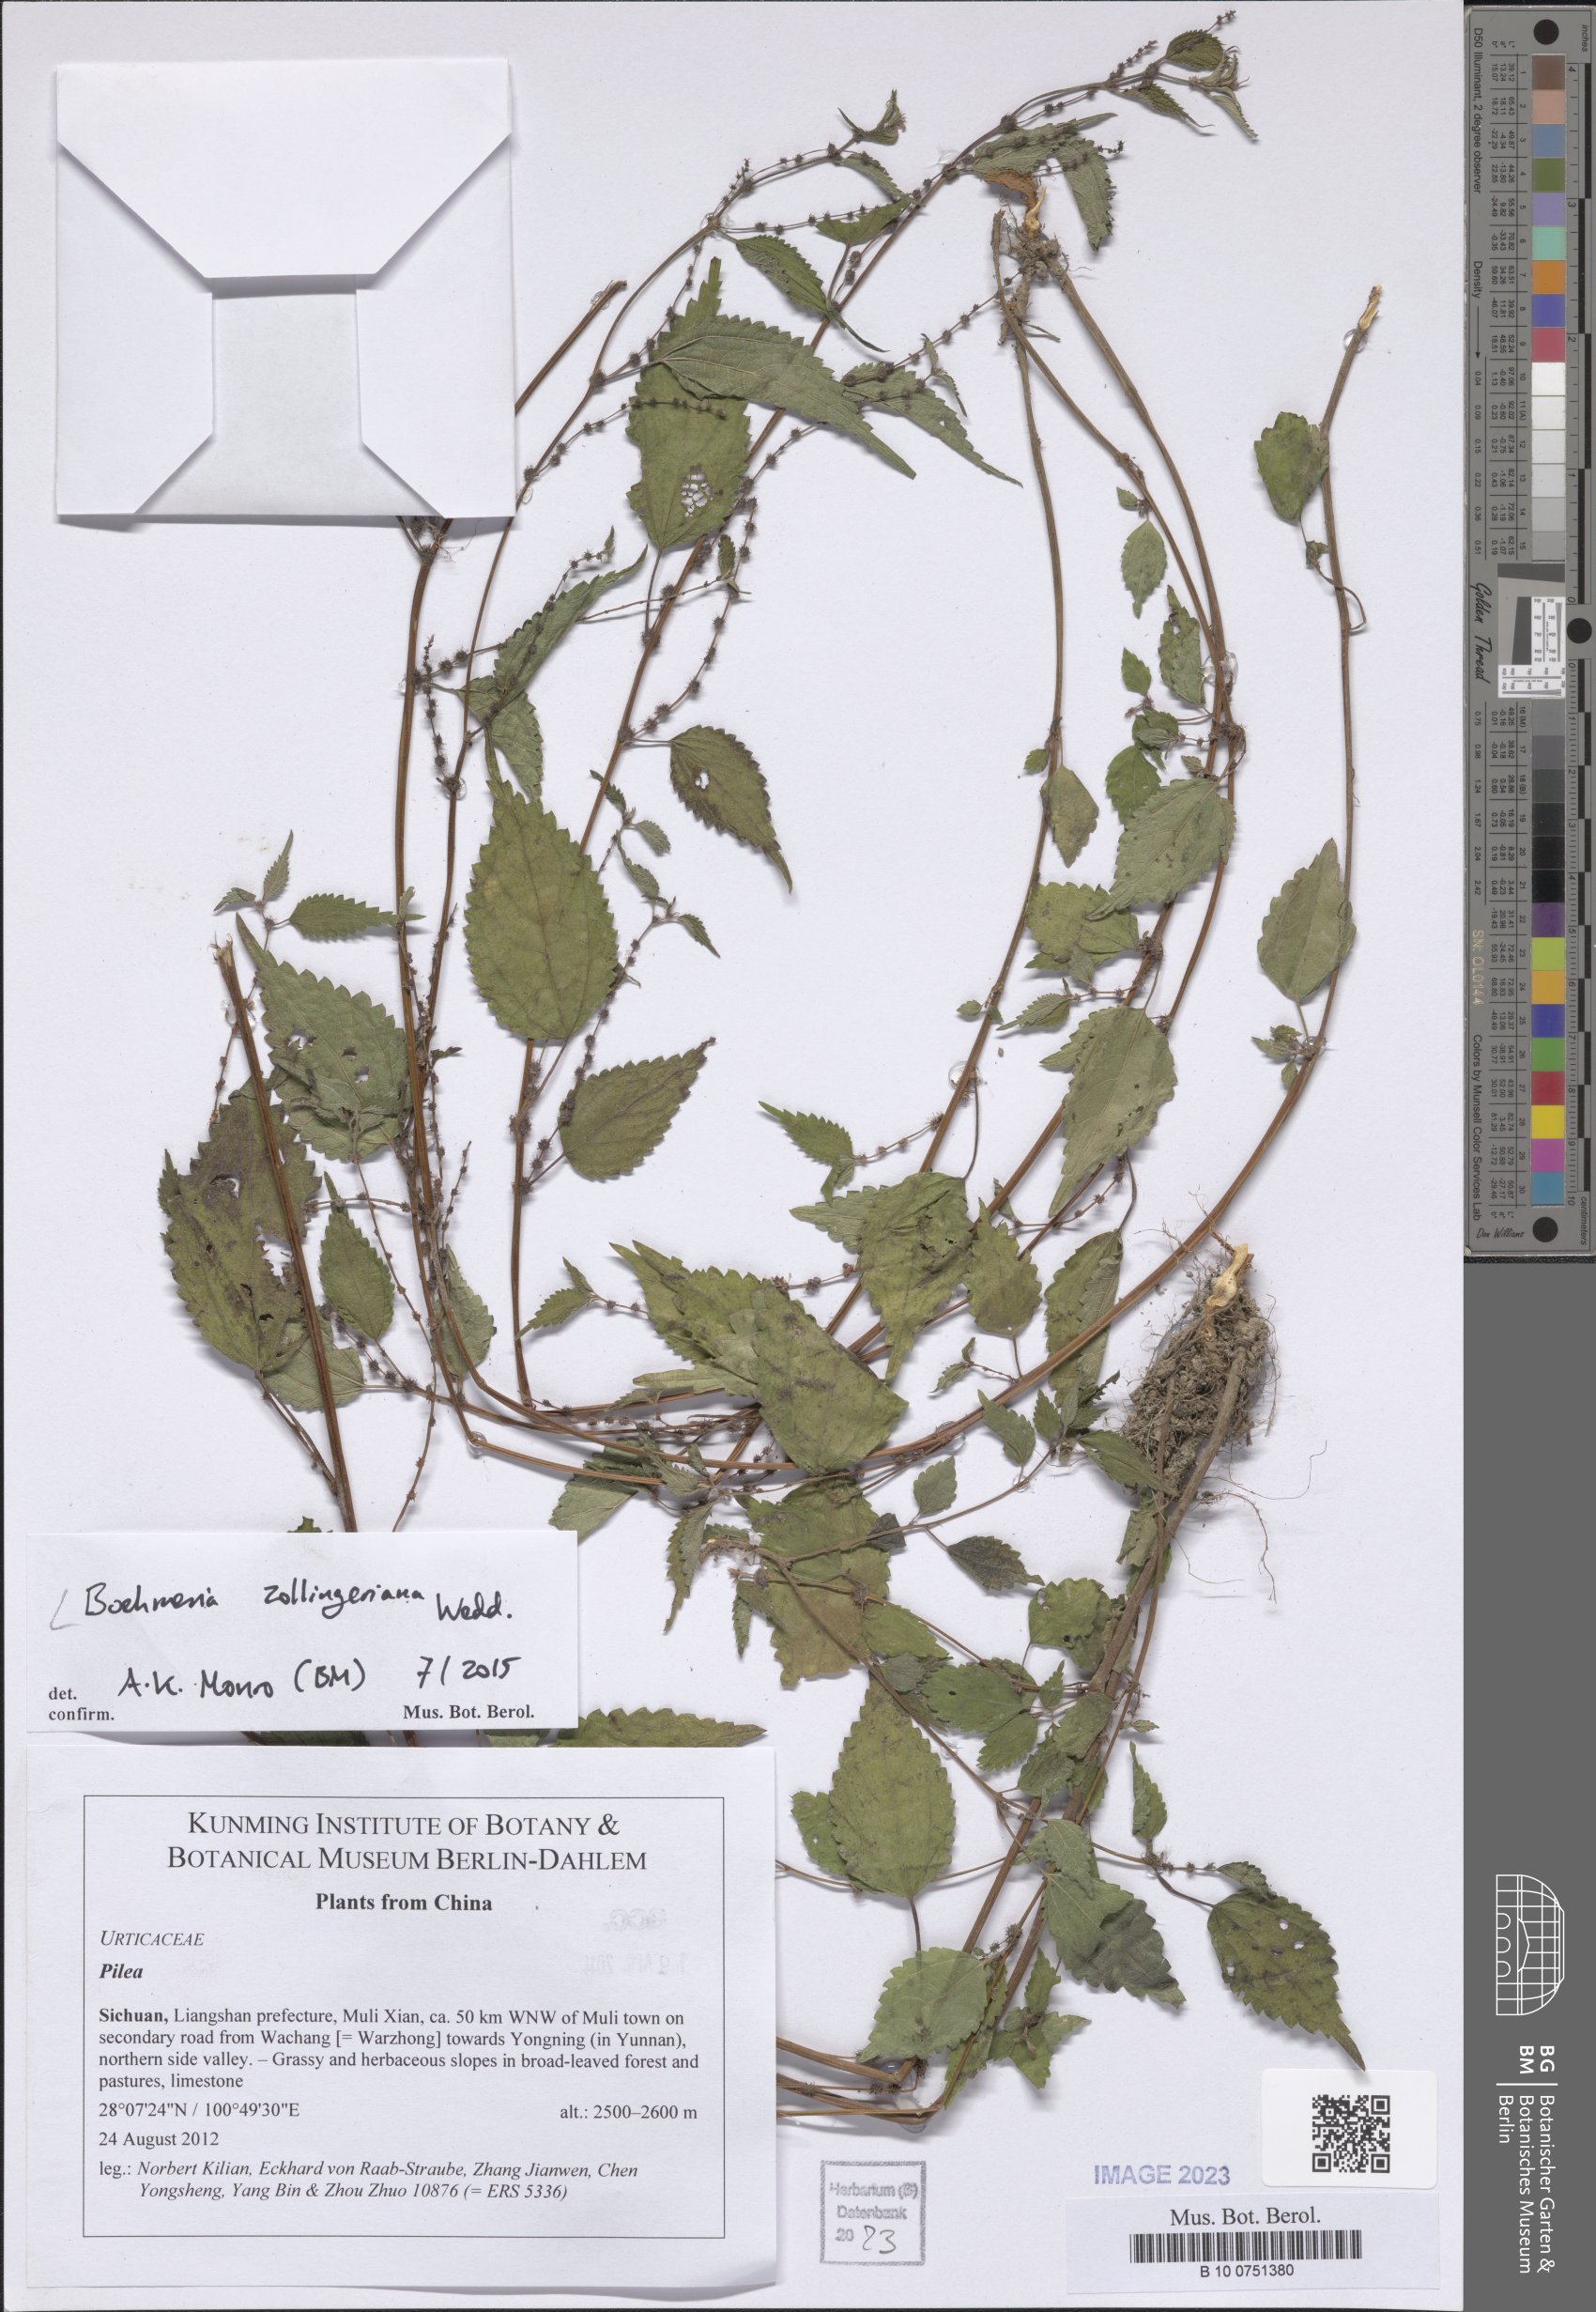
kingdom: Plantae
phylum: Tracheophyta
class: Magnoliopsida
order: Rosales
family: Urticaceae
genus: Boehmeria
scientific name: Boehmeria zollingeriana
